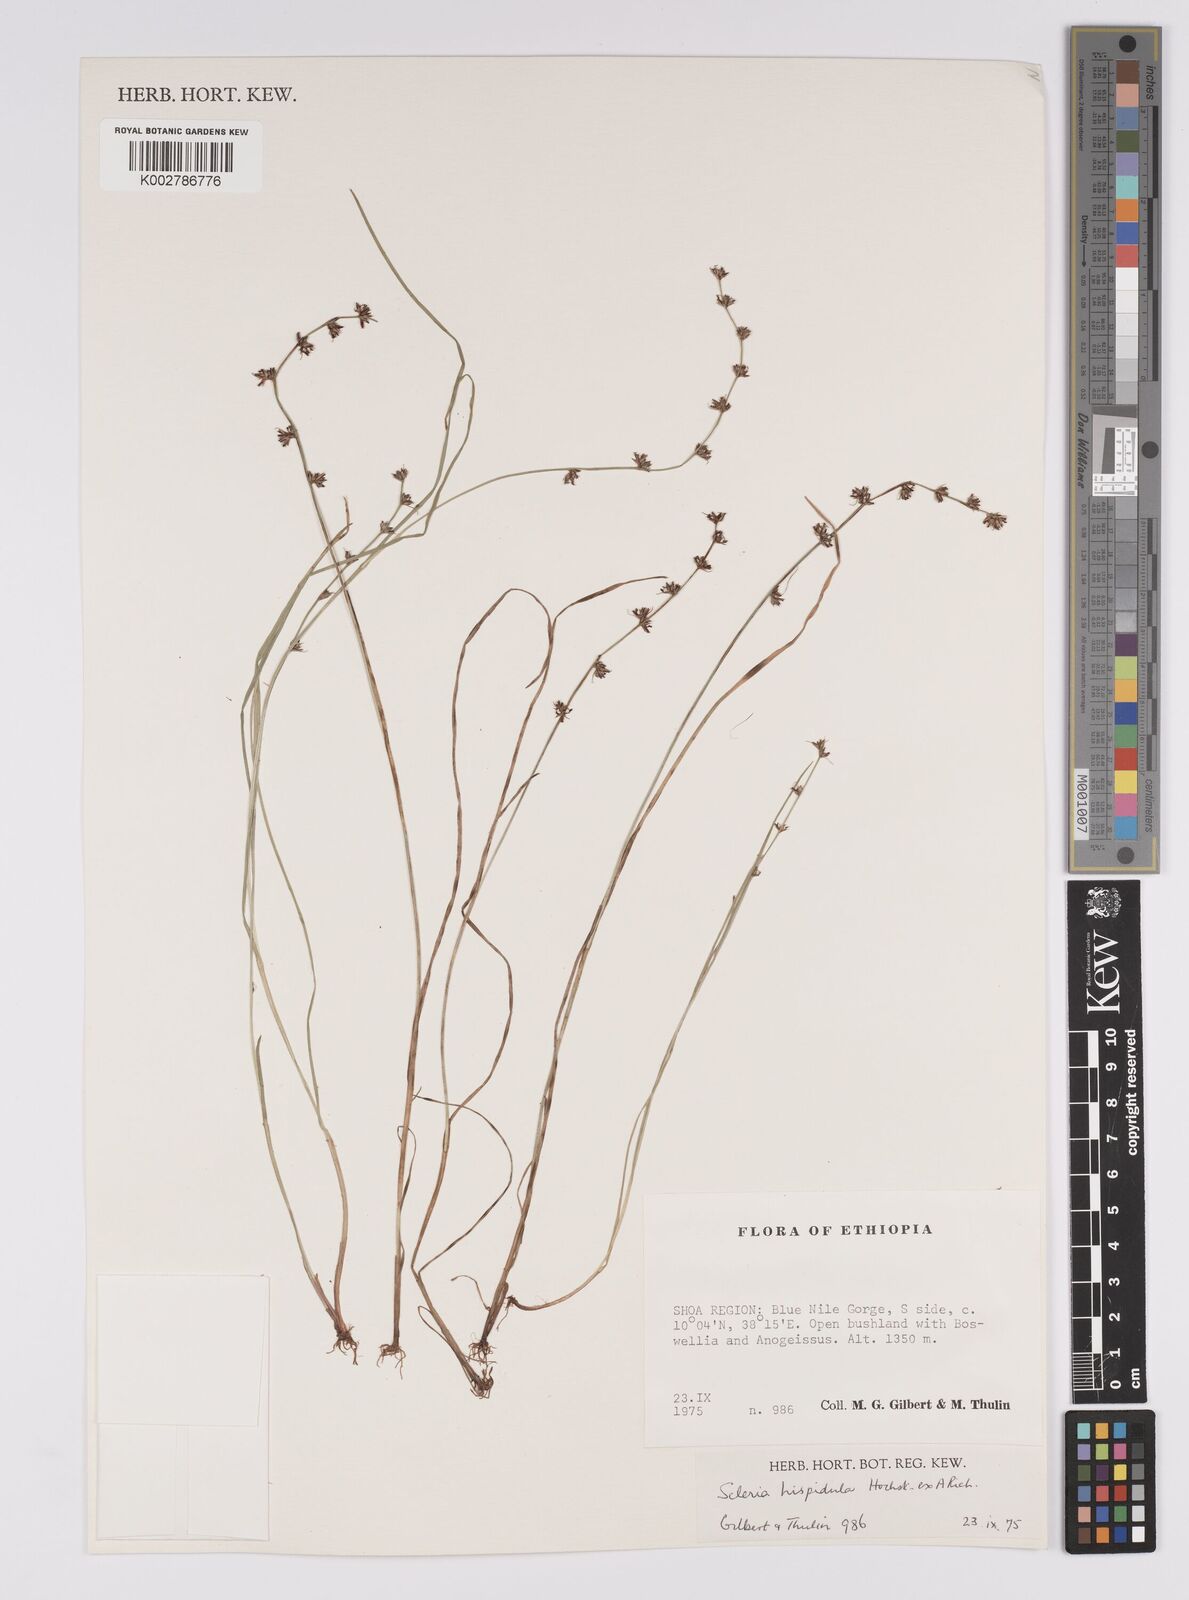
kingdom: Plantae
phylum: Tracheophyta
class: Liliopsida
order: Poales
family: Cyperaceae
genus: Scleria
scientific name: Scleria hispidula
